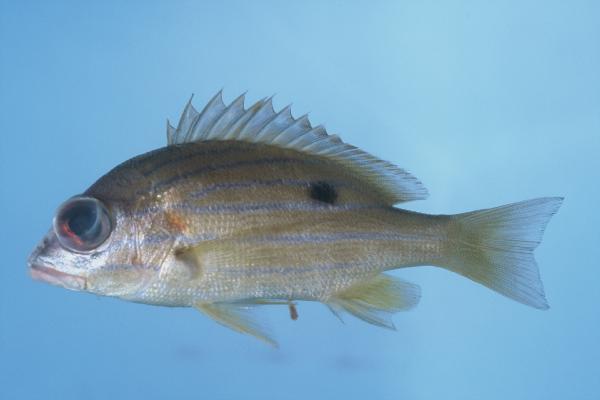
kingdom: Animalia
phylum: Chordata
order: Perciformes
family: Lutjanidae
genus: Lutjanus
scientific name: Lutjanus notatus
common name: Bluestriped snapper
